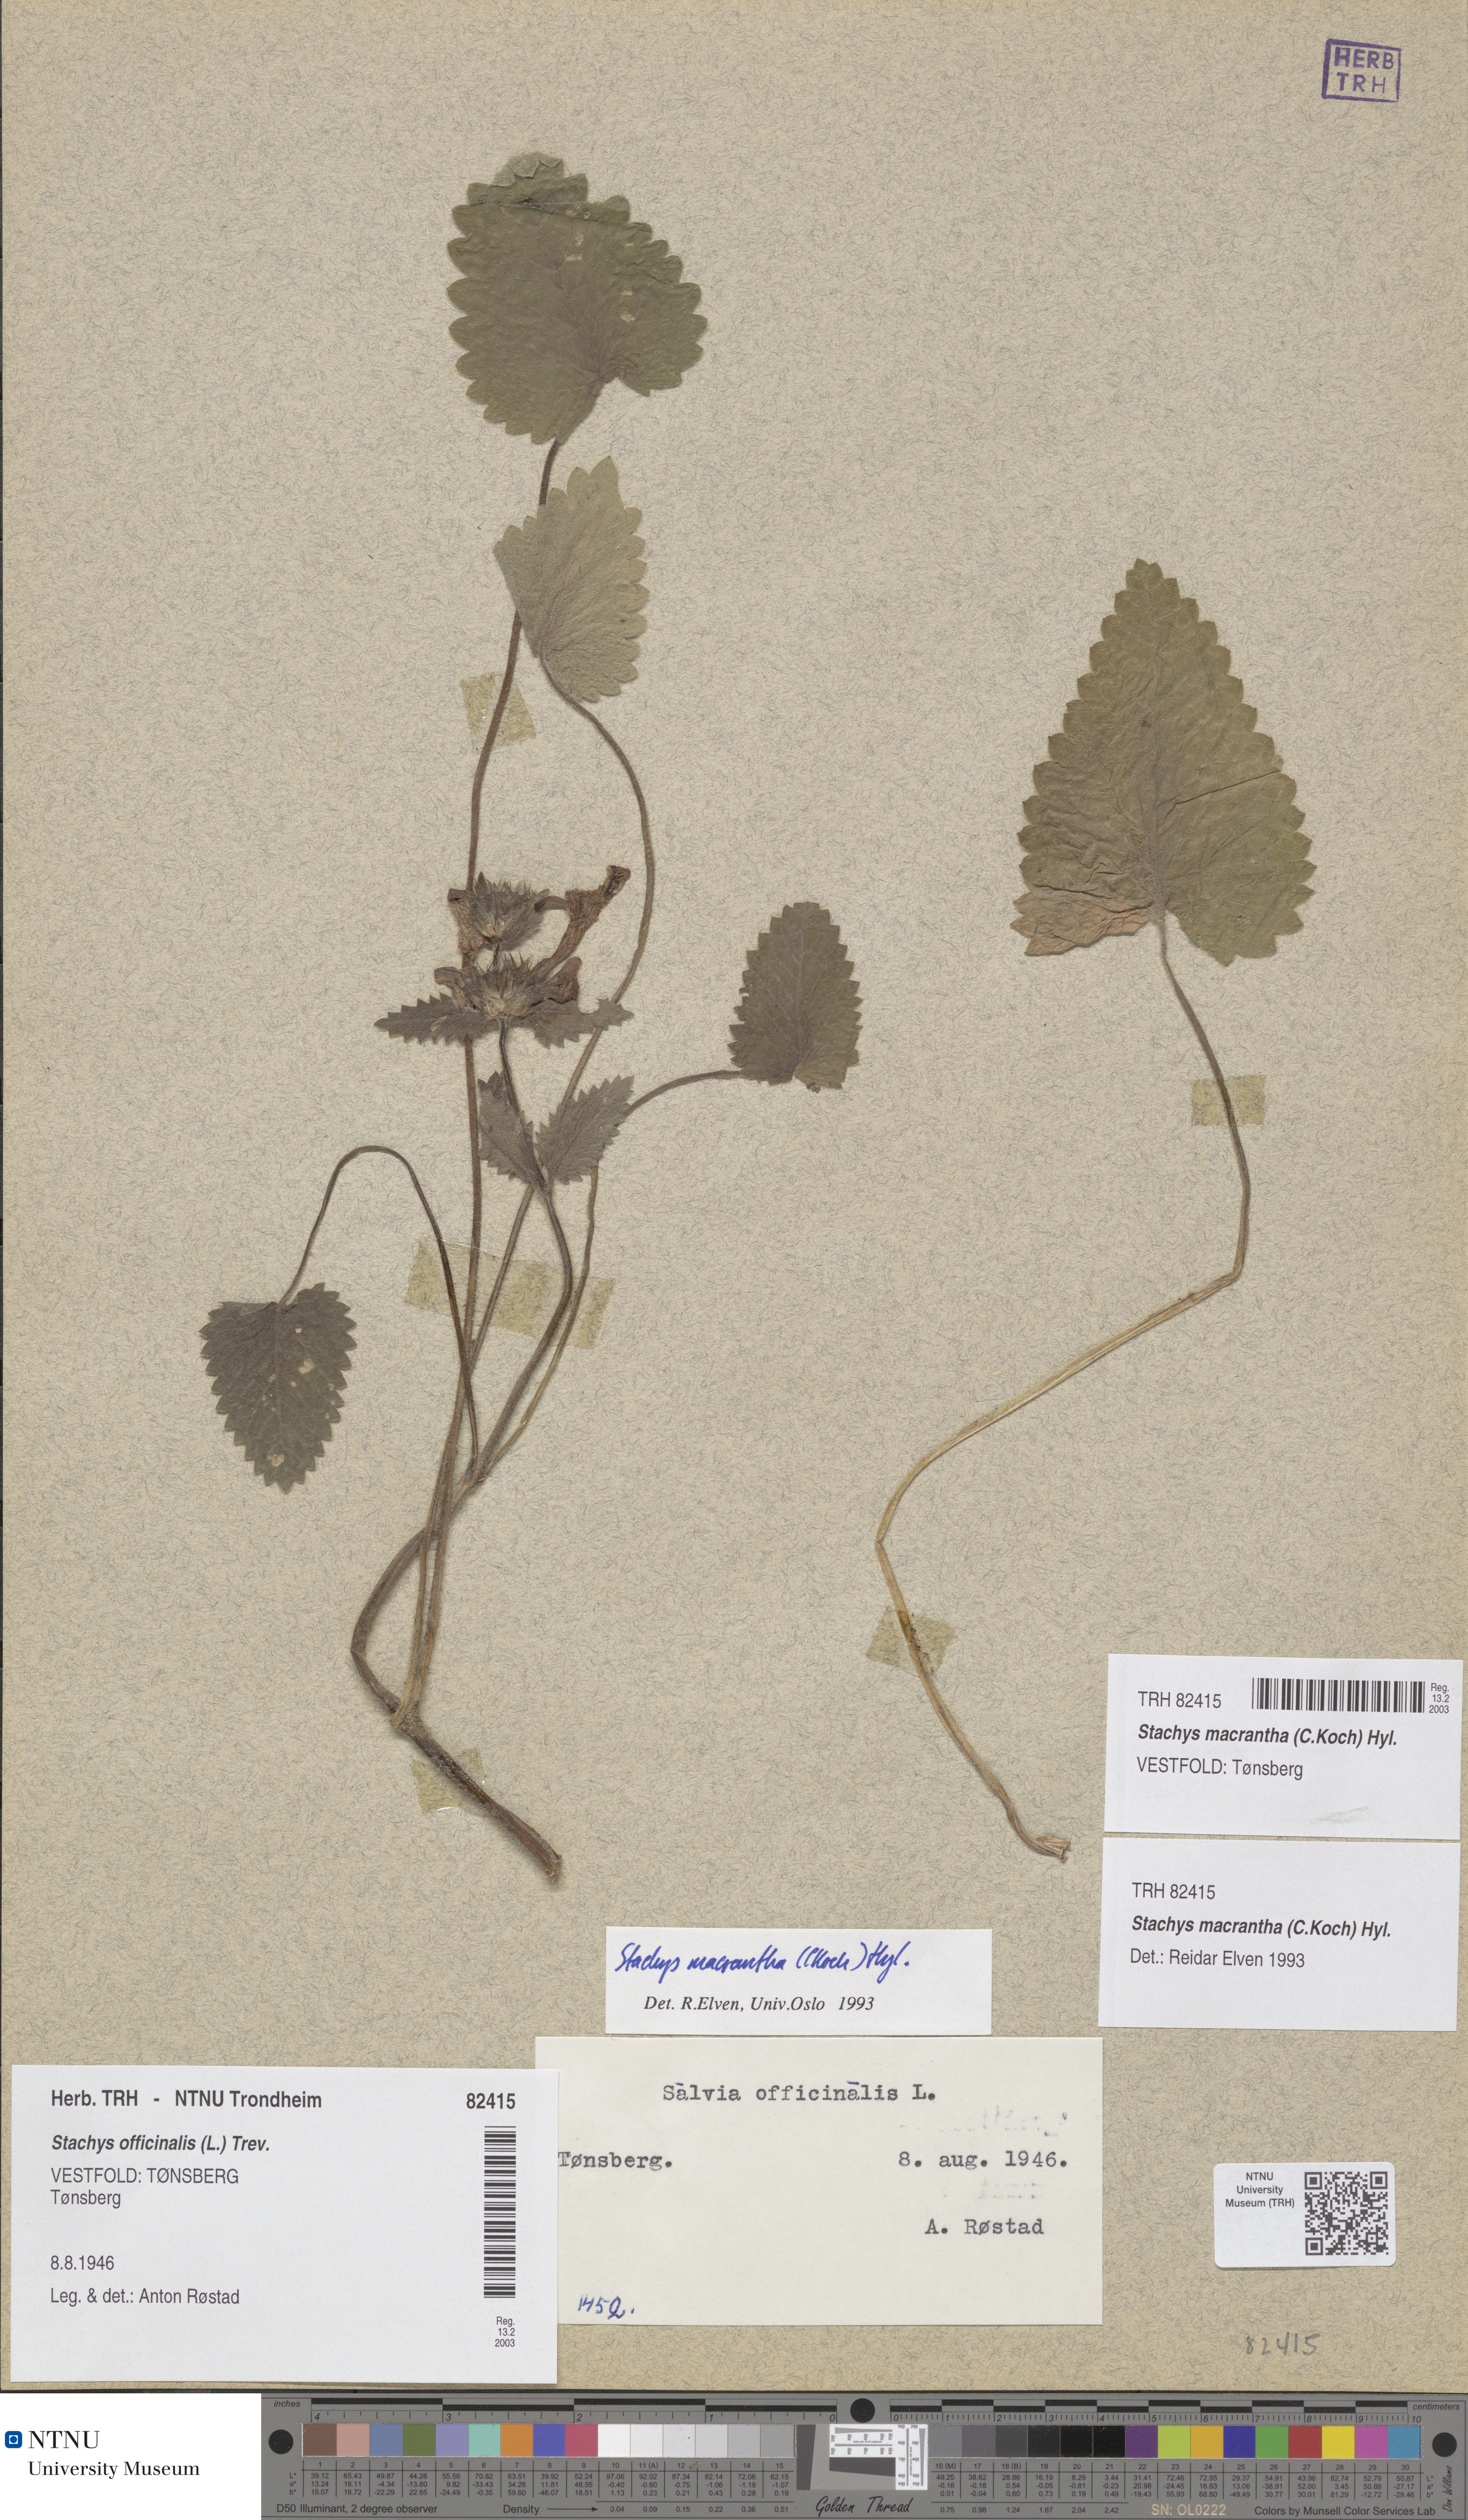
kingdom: Plantae
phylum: Tracheophyta
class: Magnoliopsida
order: Lamiales
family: Lamiaceae
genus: Betonica
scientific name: Betonica macrantha
